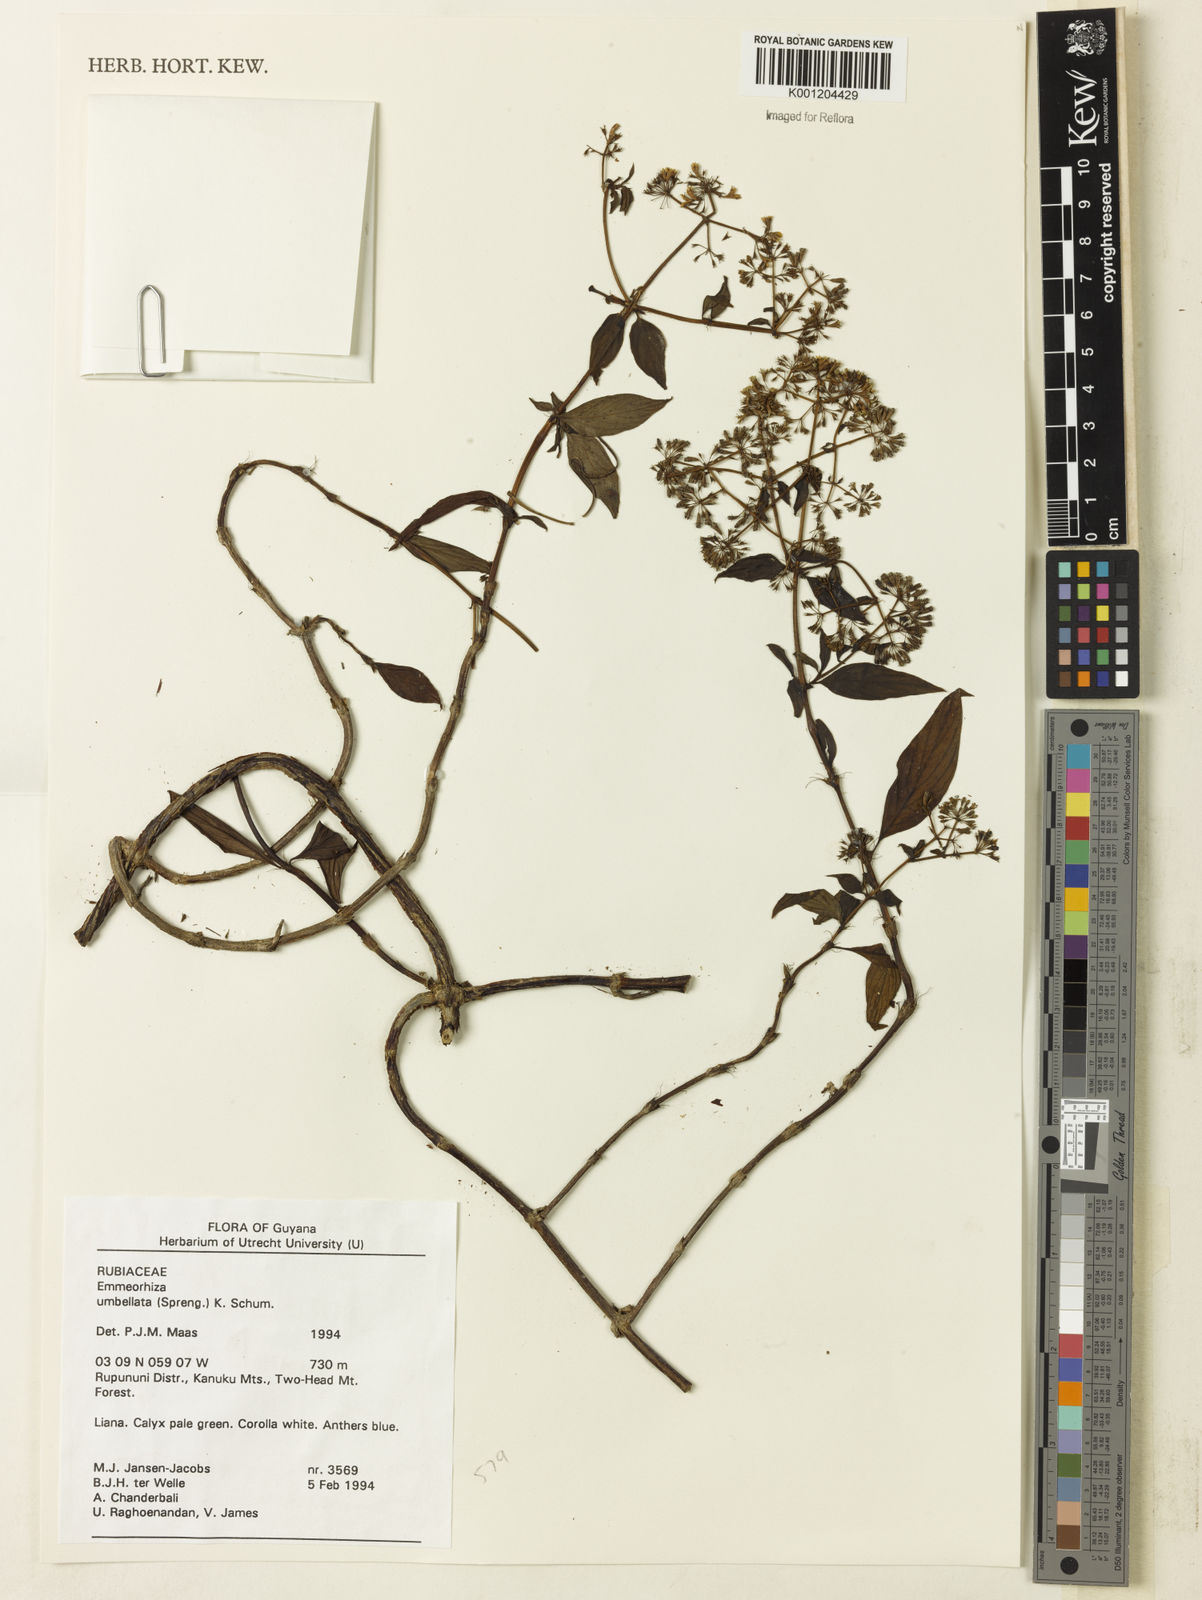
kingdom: Plantae
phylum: Tracheophyta
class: Magnoliopsida
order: Gentianales
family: Rubiaceae
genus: Emmeorhiza
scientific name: Emmeorhiza umbellata
